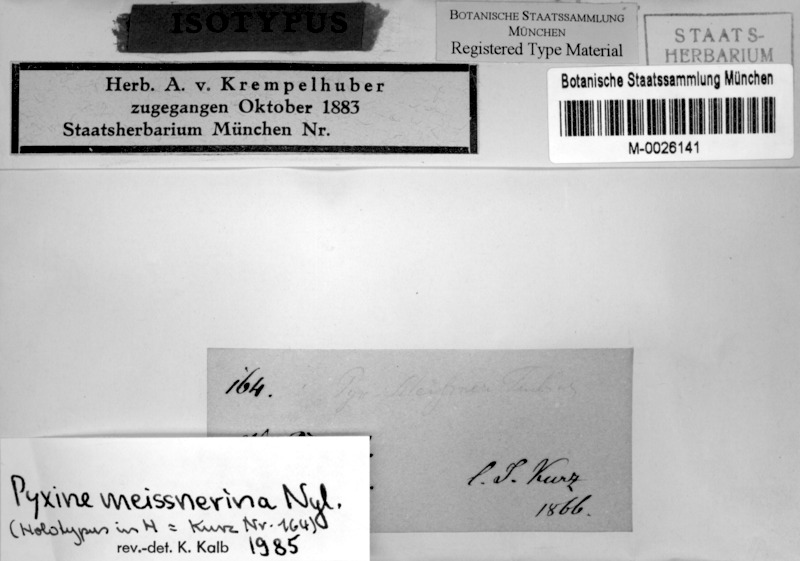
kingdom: Fungi
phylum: Ascomycota
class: Lecanoromycetes
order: Caliciales
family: Caliciaceae
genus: Pyxine
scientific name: Pyxine berteroana
